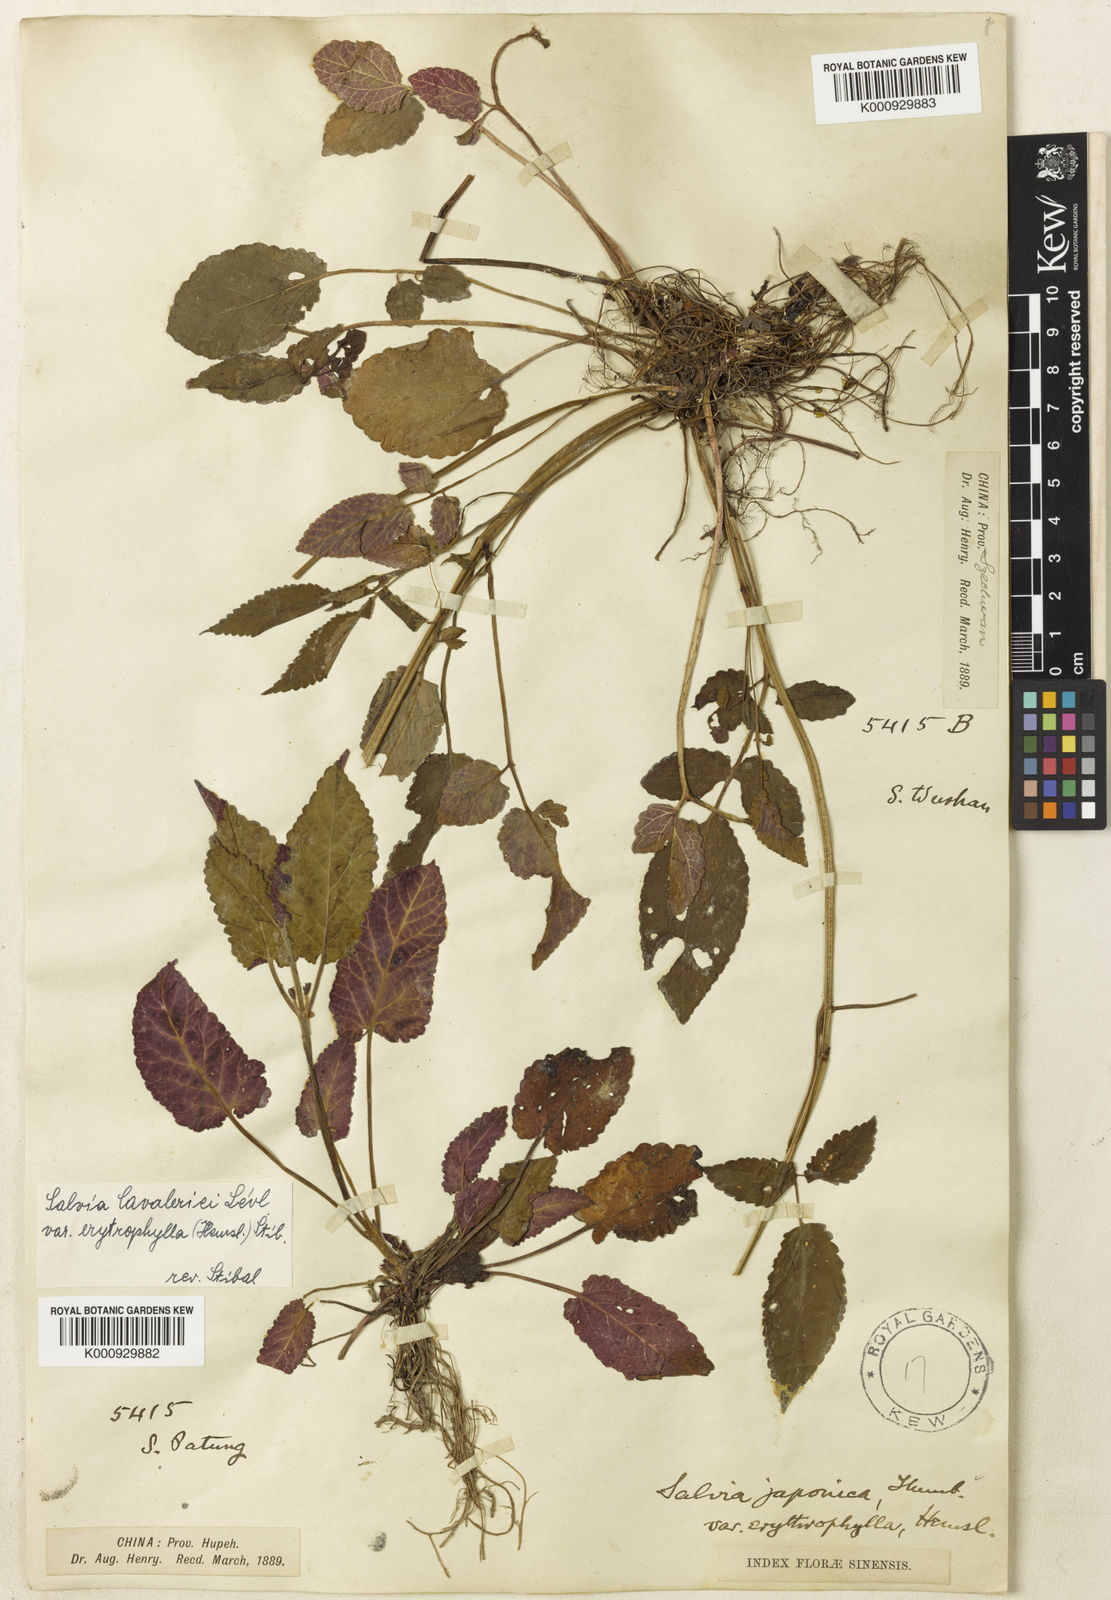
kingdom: Plantae
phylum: Tracheophyta
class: Magnoliopsida
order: Lamiales
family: Lamiaceae
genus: Salvia
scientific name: Salvia
